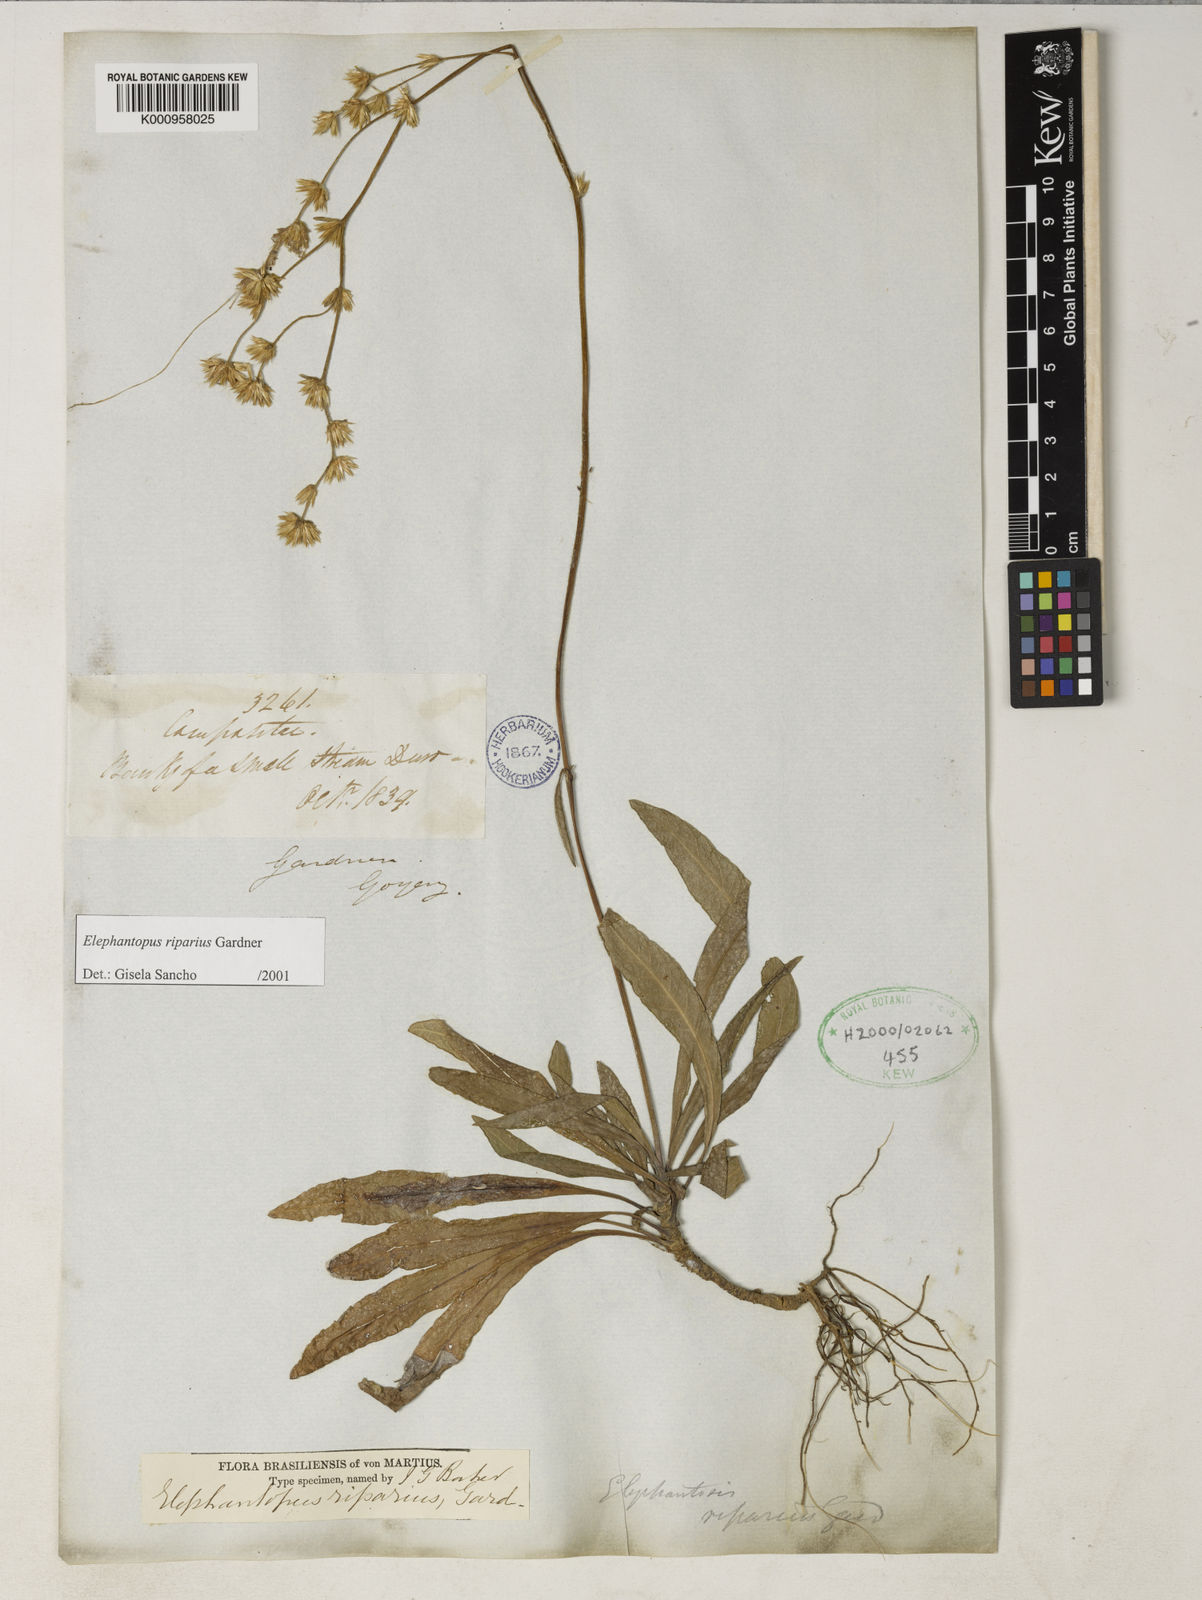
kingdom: Plantae
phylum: Tracheophyta
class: Magnoliopsida
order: Asterales
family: Asteraceae
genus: Elephantopus
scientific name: Elephantopus riparius
